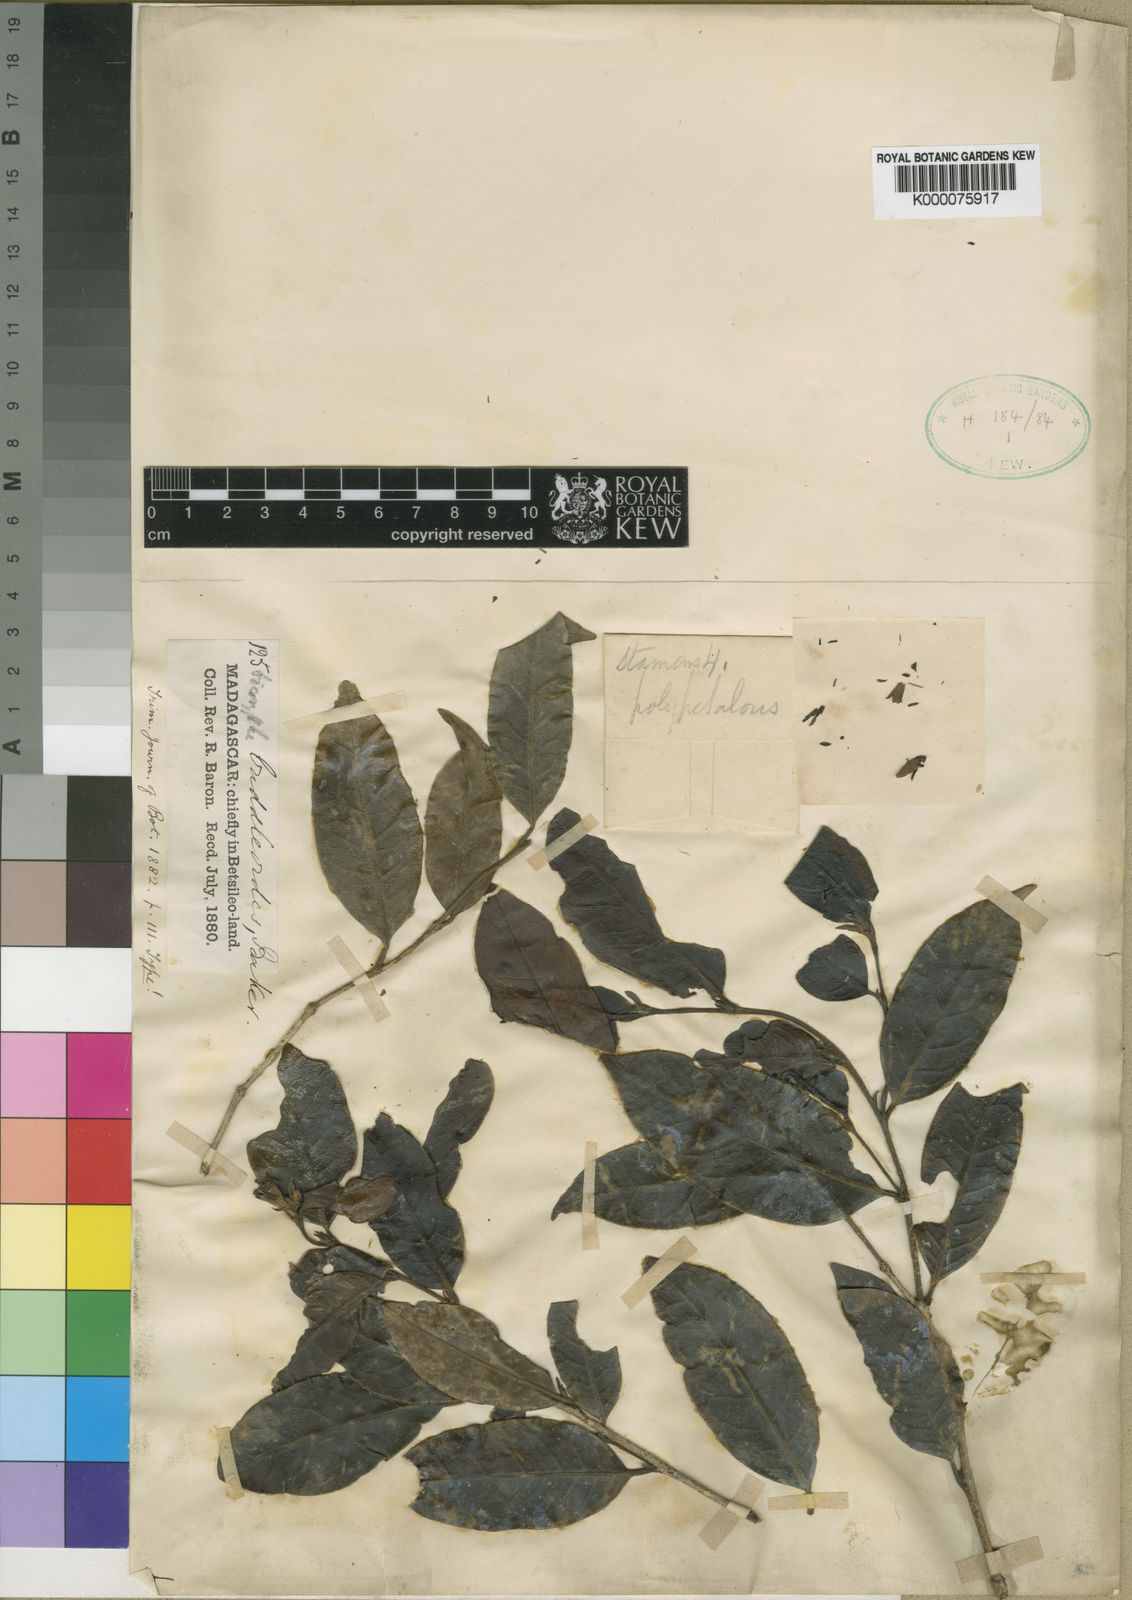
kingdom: Plantae
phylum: Tracheophyta
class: Magnoliopsida
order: Saxifragales
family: Hamamelidaceae
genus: Dicoryphe
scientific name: Dicoryphe
